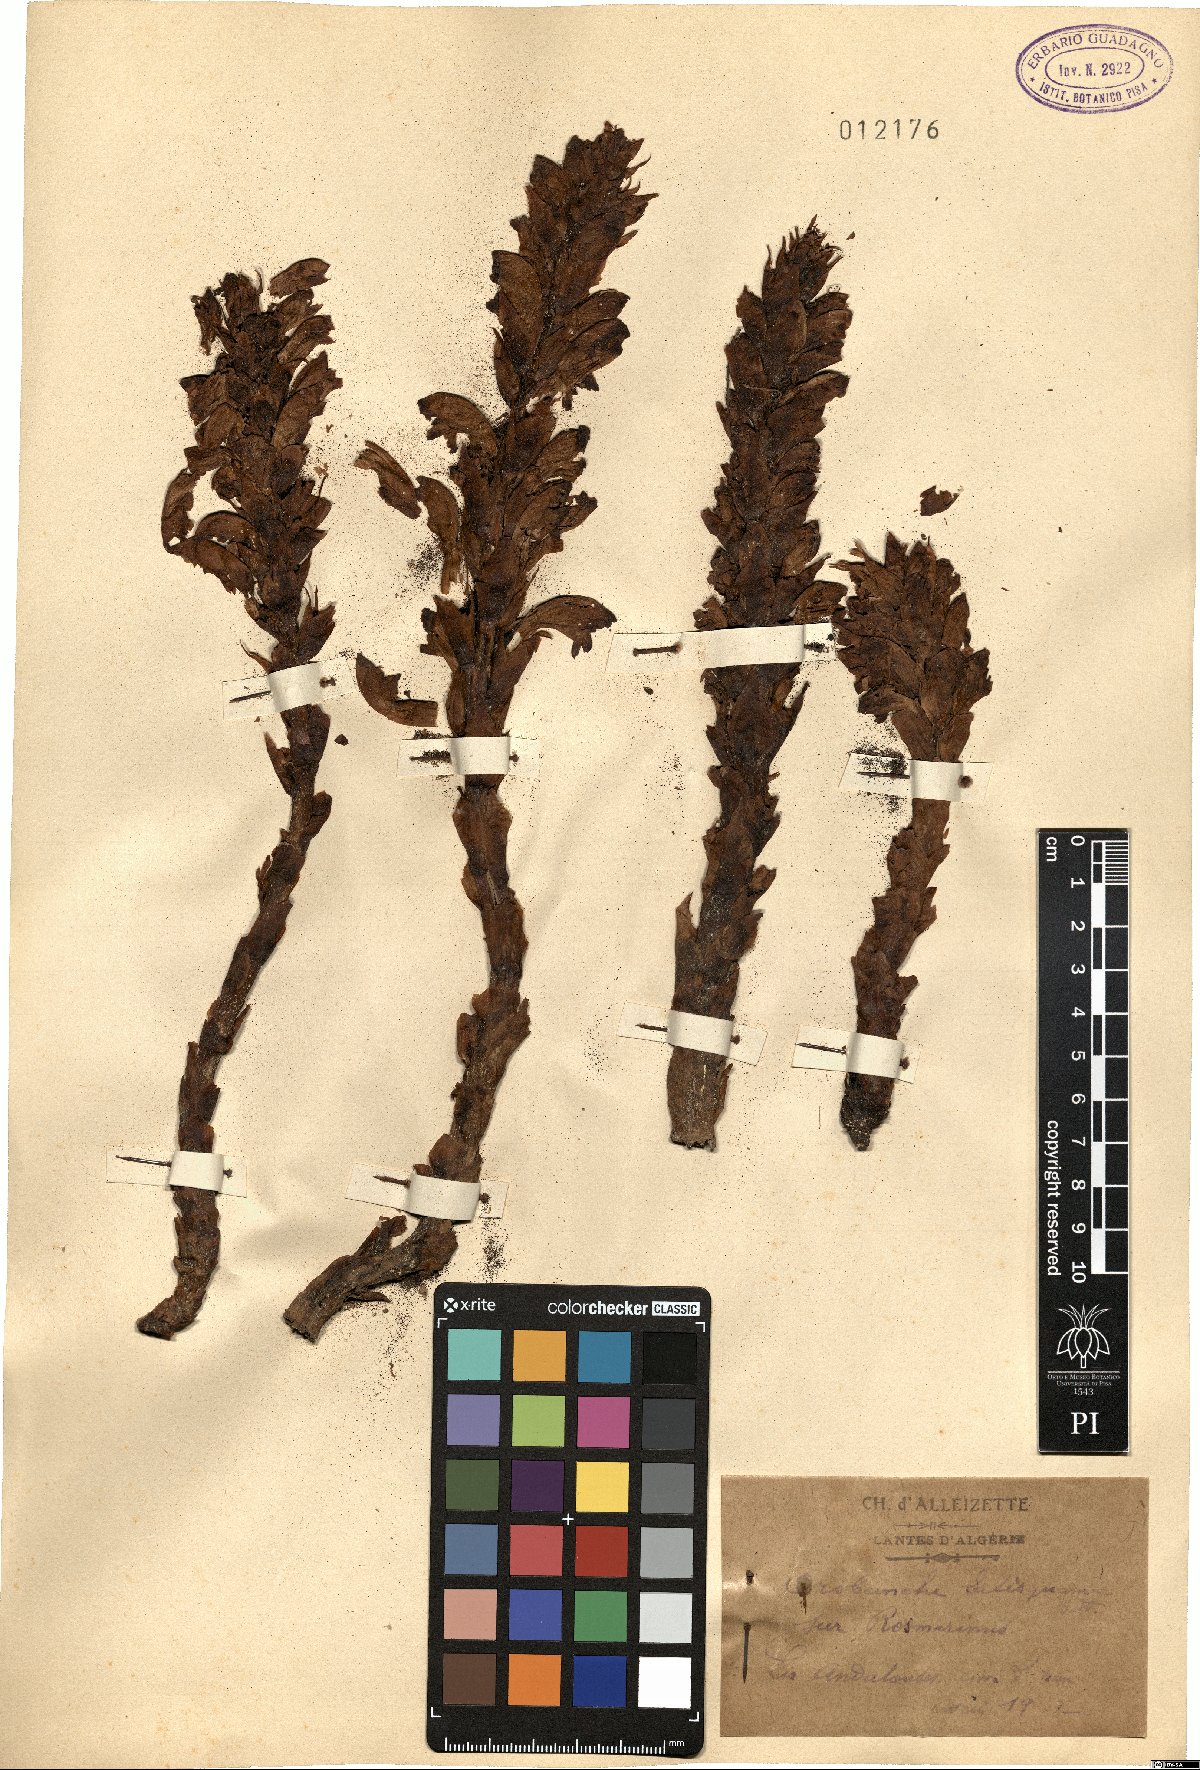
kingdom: Plantae
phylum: Tracheophyta
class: Magnoliopsida
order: Lamiales
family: Orobanchaceae
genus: Boulardia
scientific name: Boulardia latisquama
